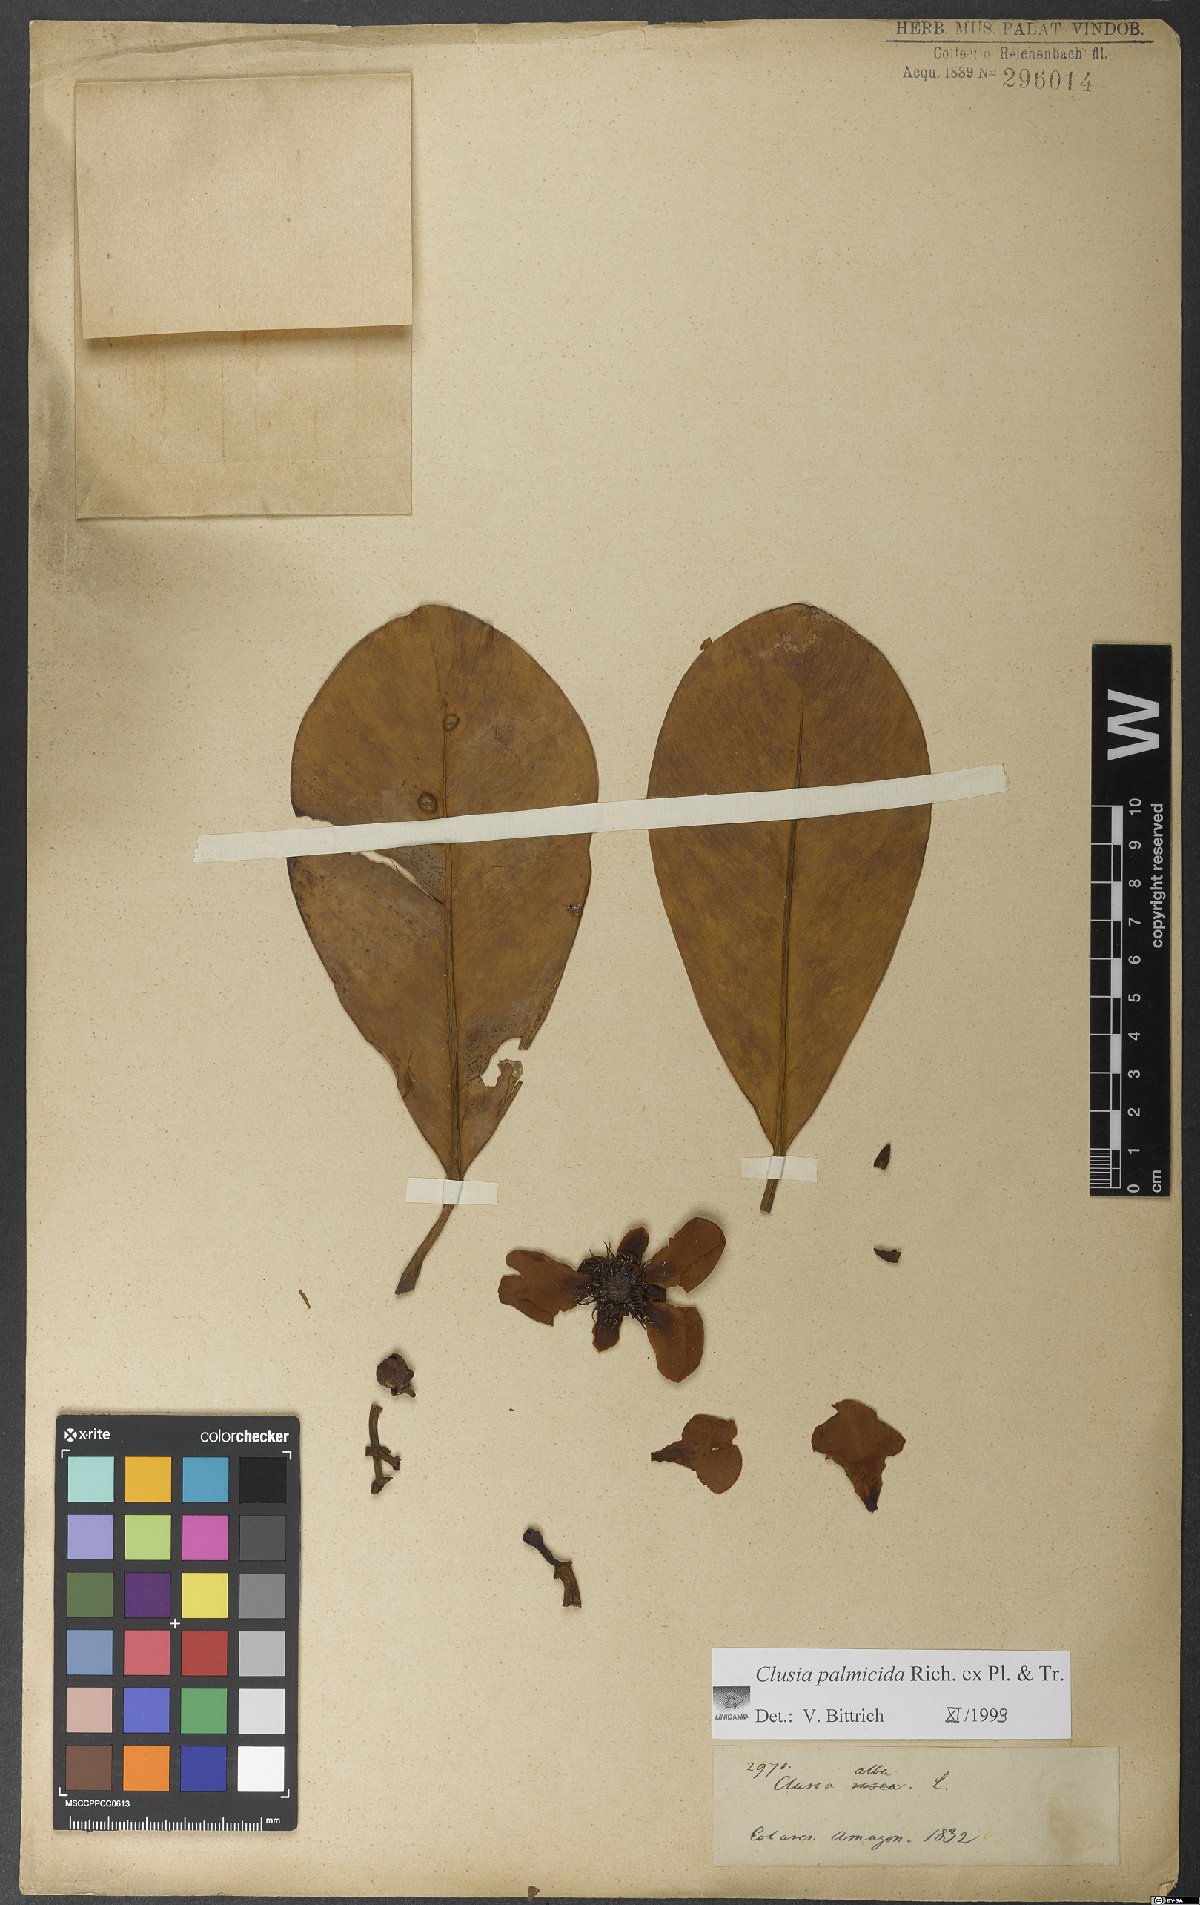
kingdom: Plantae
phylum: Tracheophyta
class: Magnoliopsida
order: Malpighiales
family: Clusiaceae
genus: Clusia
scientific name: Clusia palmicida
